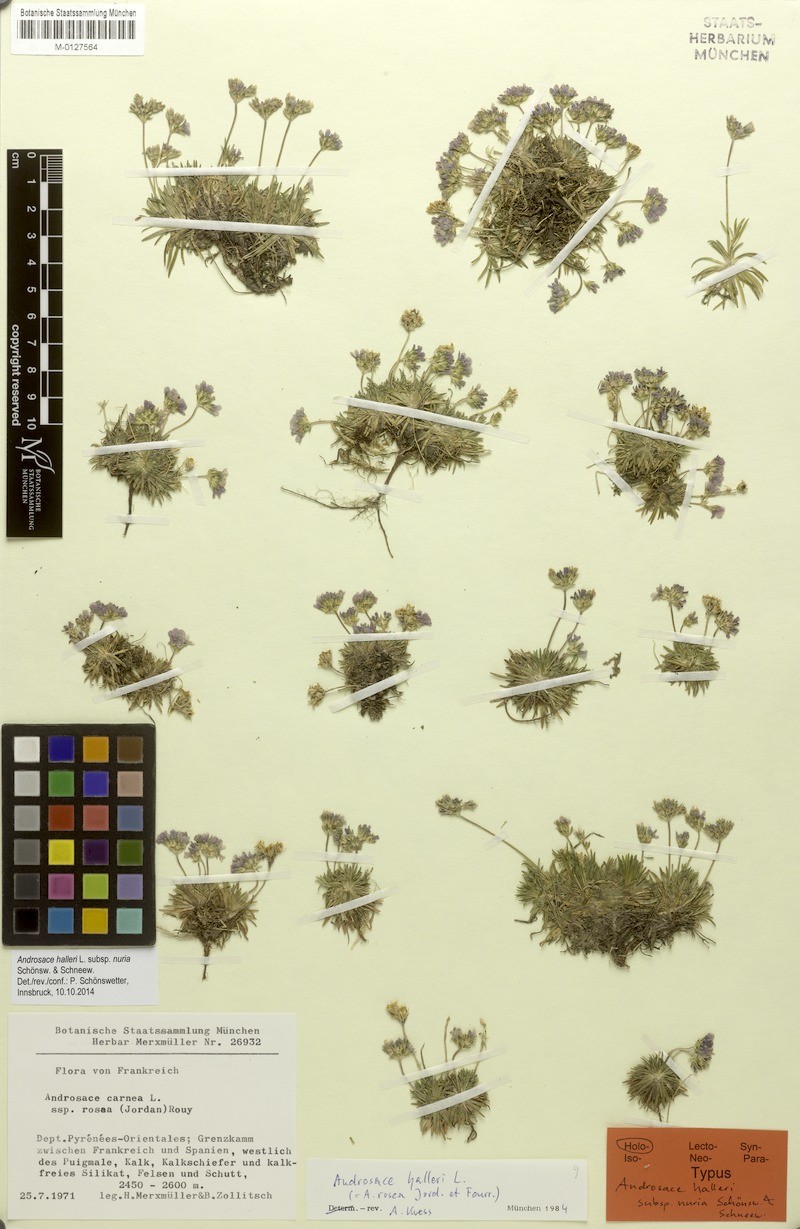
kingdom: Plantae
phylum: Tracheophyta
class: Magnoliopsida
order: Ericales
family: Primulaceae
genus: Androsace
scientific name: Androsace halleri
